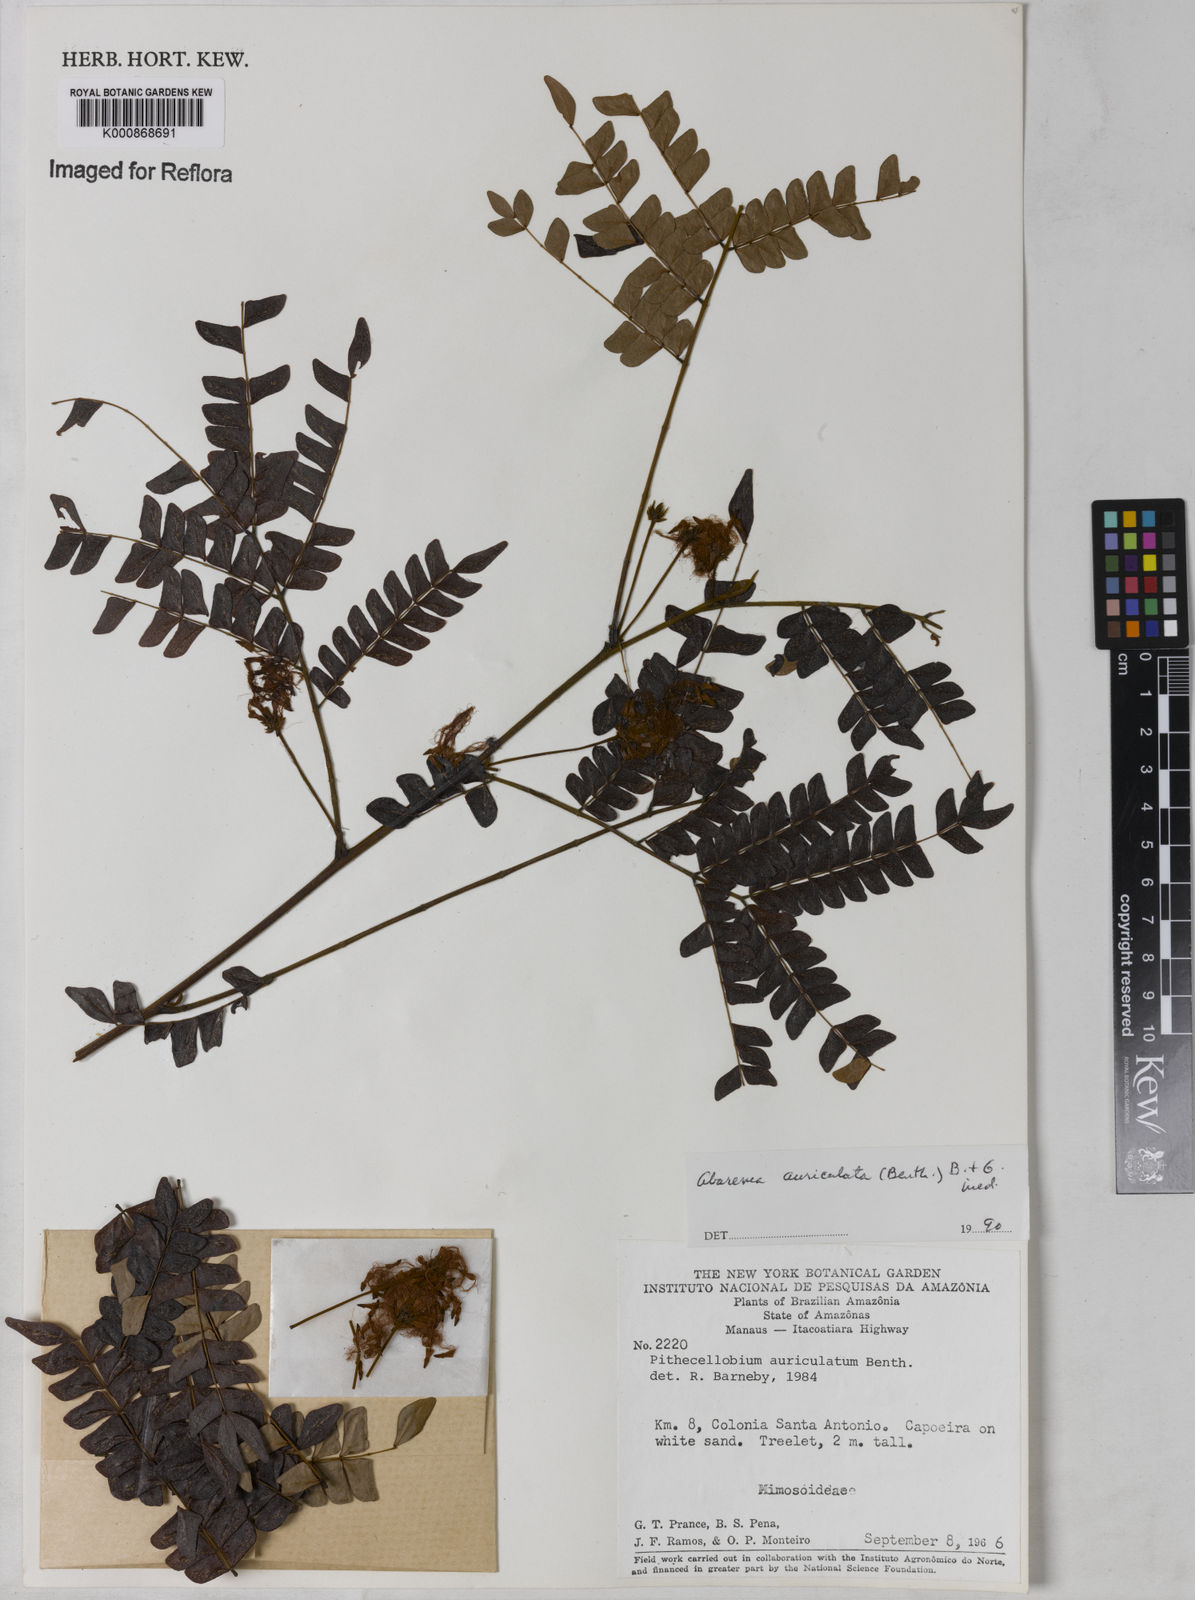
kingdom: Plantae
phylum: Tracheophyta
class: Magnoliopsida
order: Fabales
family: Fabaceae
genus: Jupunba
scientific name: Jupunba auriculata
